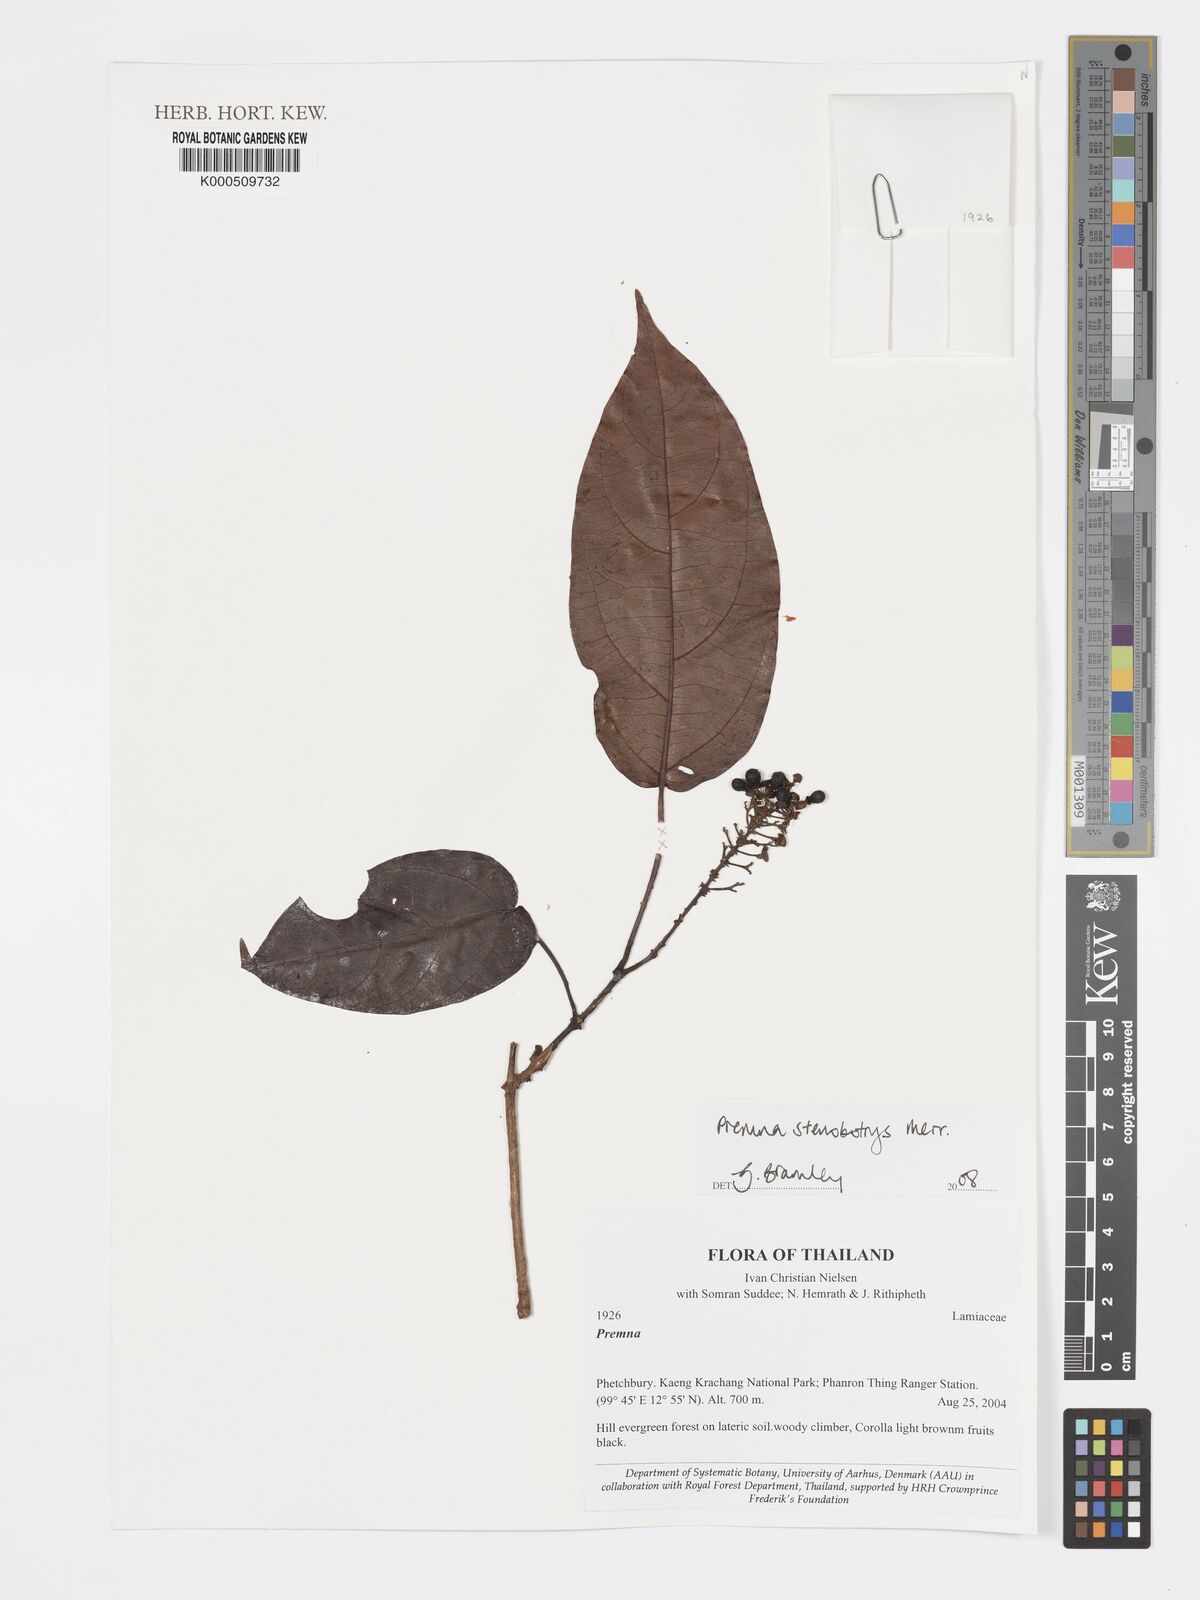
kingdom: Plantae
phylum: Tracheophyta
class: Magnoliopsida
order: Lamiales
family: Lamiaceae
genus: Premna
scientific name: Premna stenobotrys
